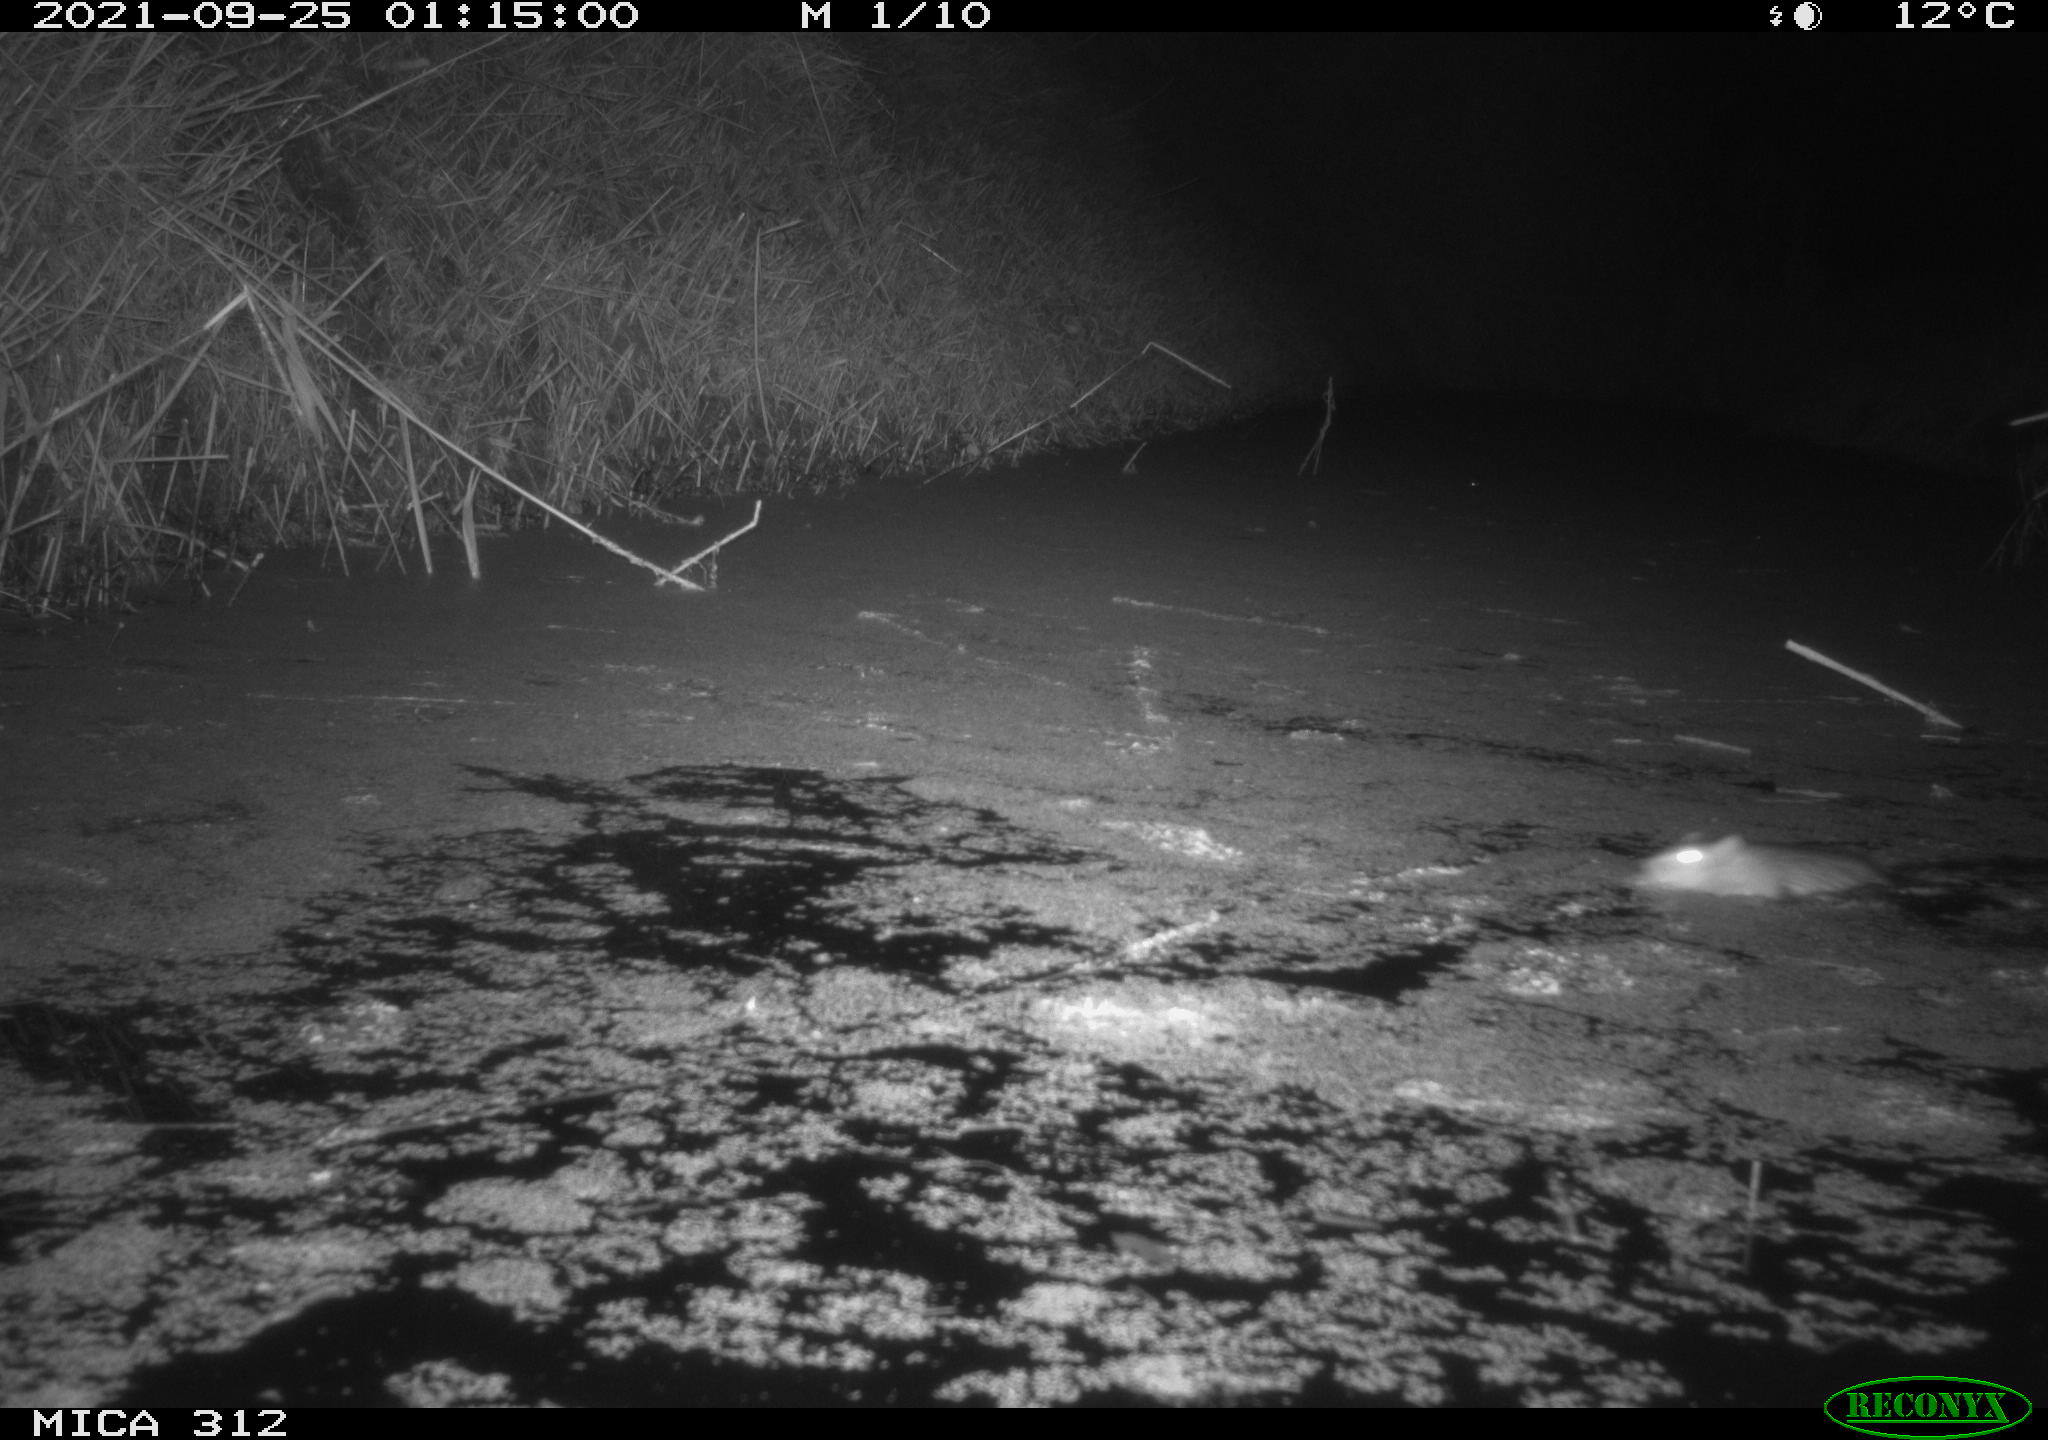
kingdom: Animalia
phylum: Chordata
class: Mammalia
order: Rodentia
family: Muridae
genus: Rattus
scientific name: Rattus norvegicus
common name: Brown rat
